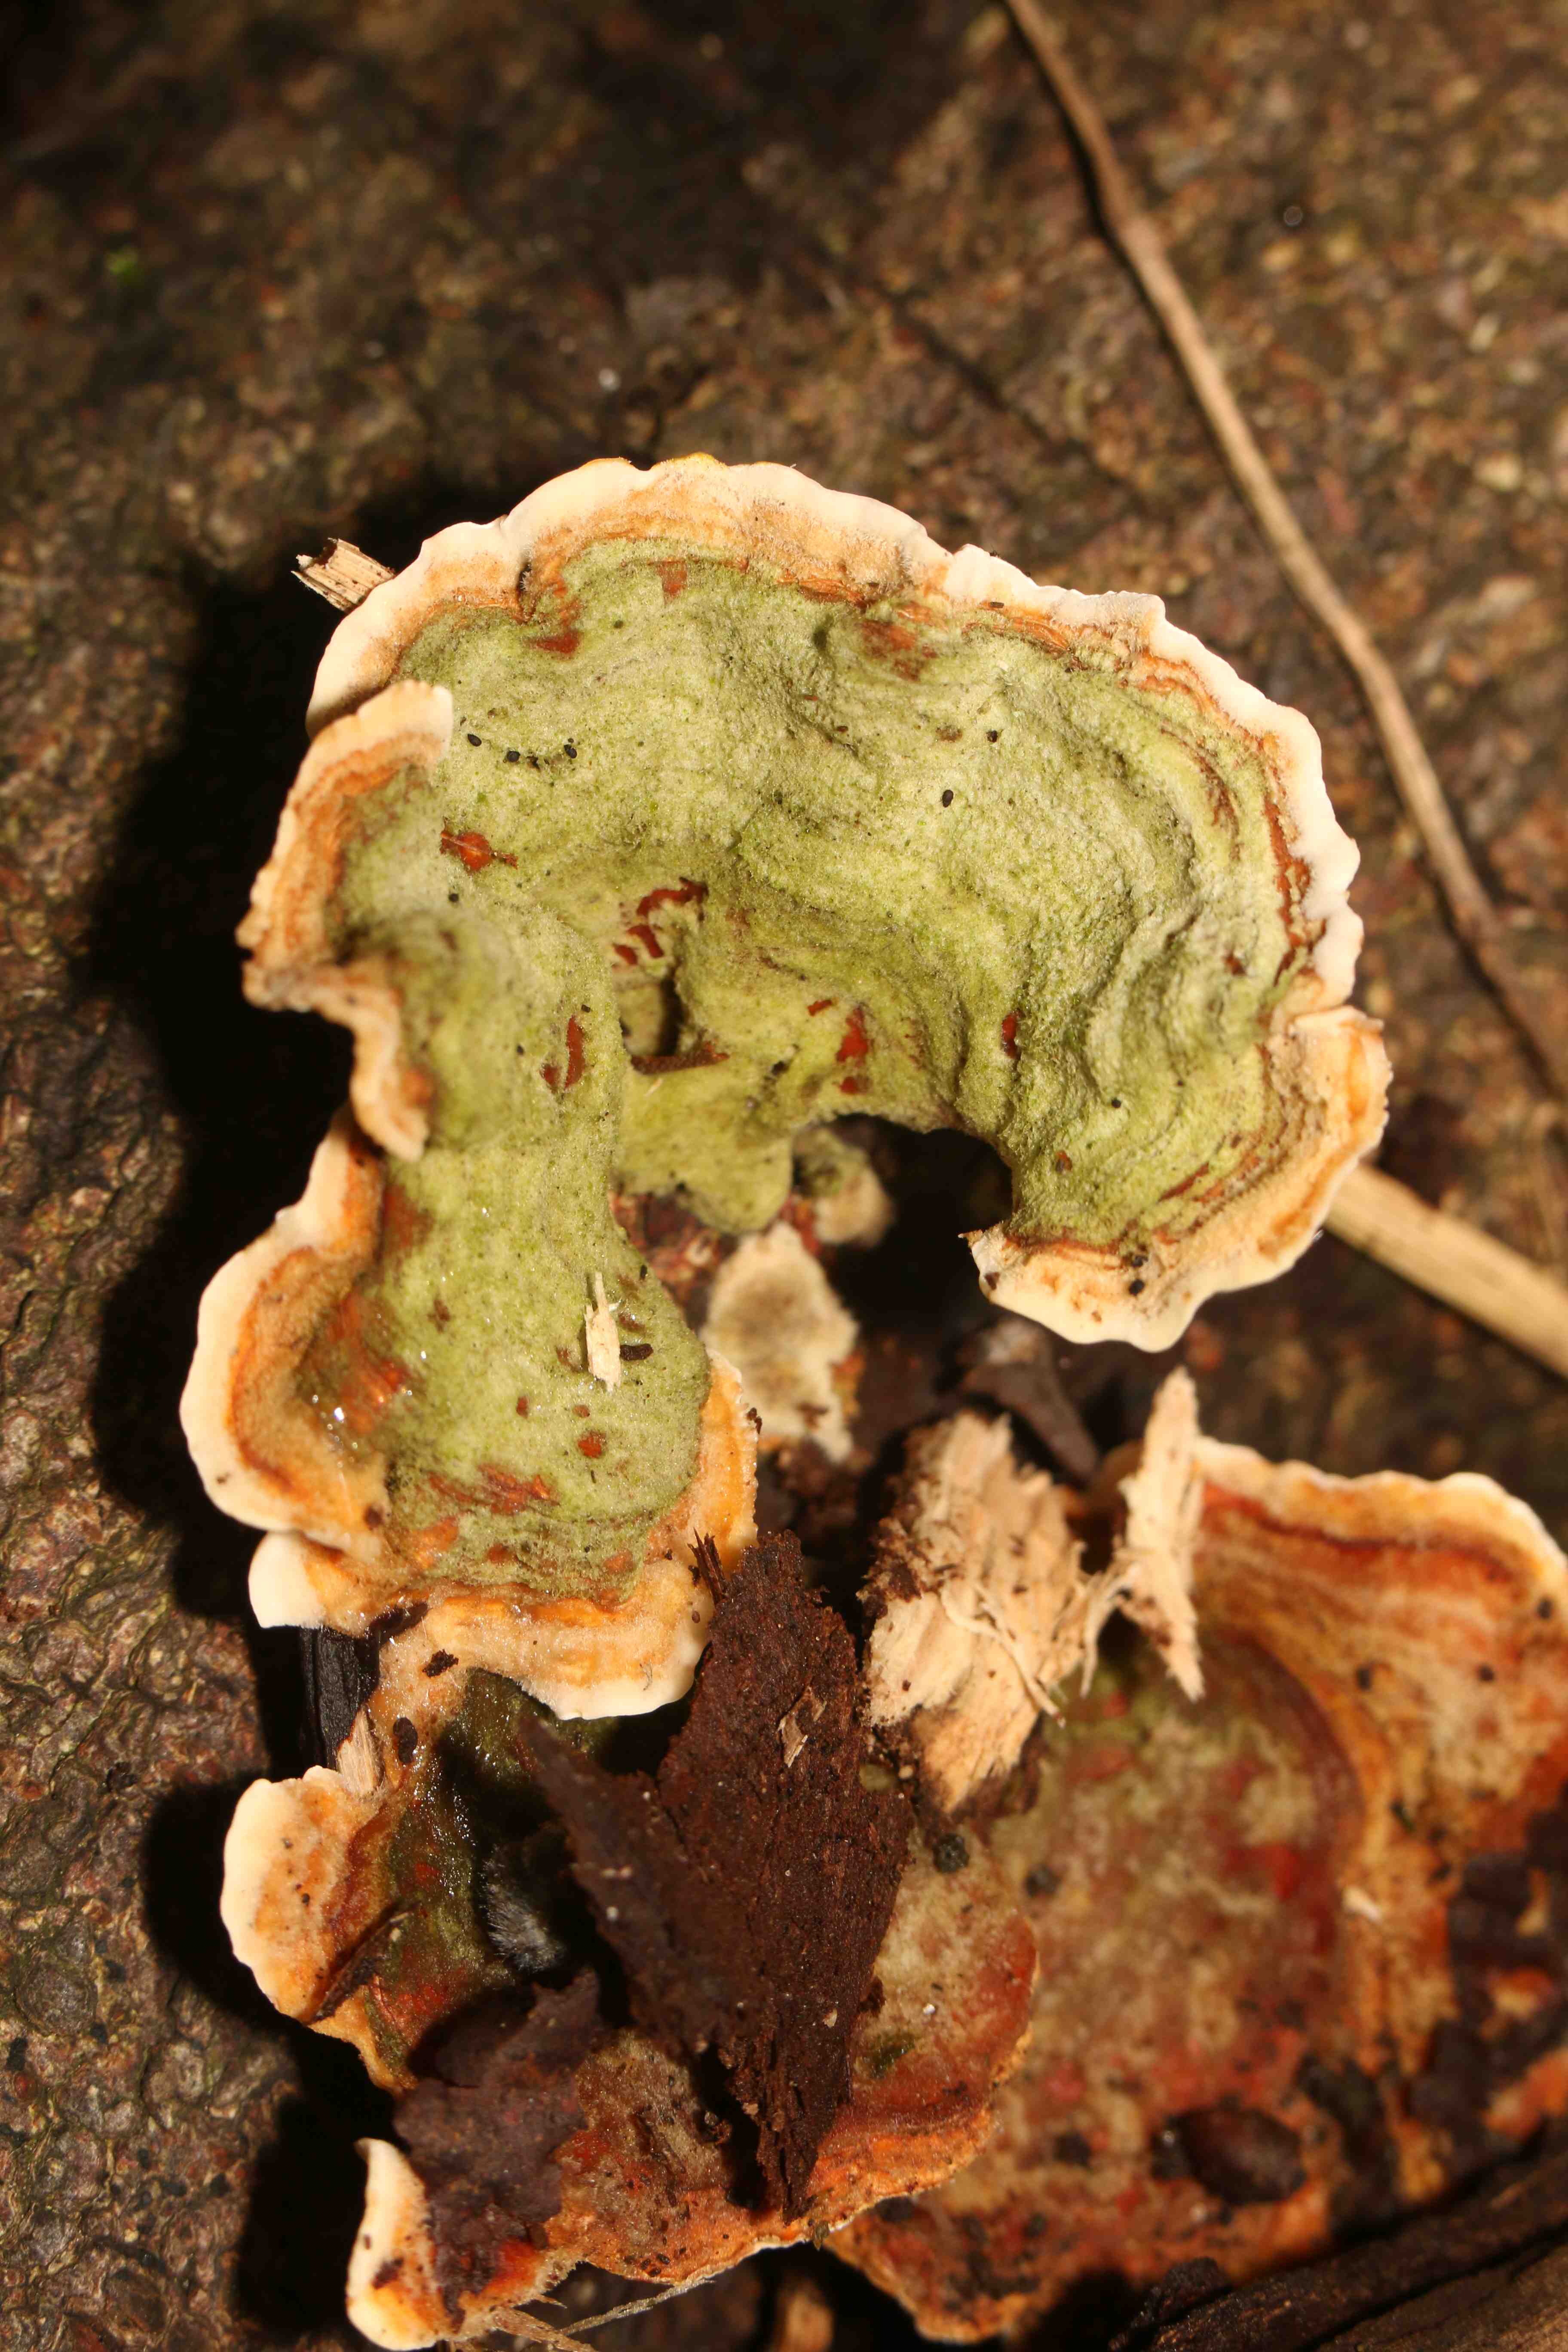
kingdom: Fungi
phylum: Basidiomycota
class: Agaricomycetes
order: Russulales
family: Stereaceae
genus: Stereum
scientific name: Stereum hirsutum
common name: håret lædersvamp
